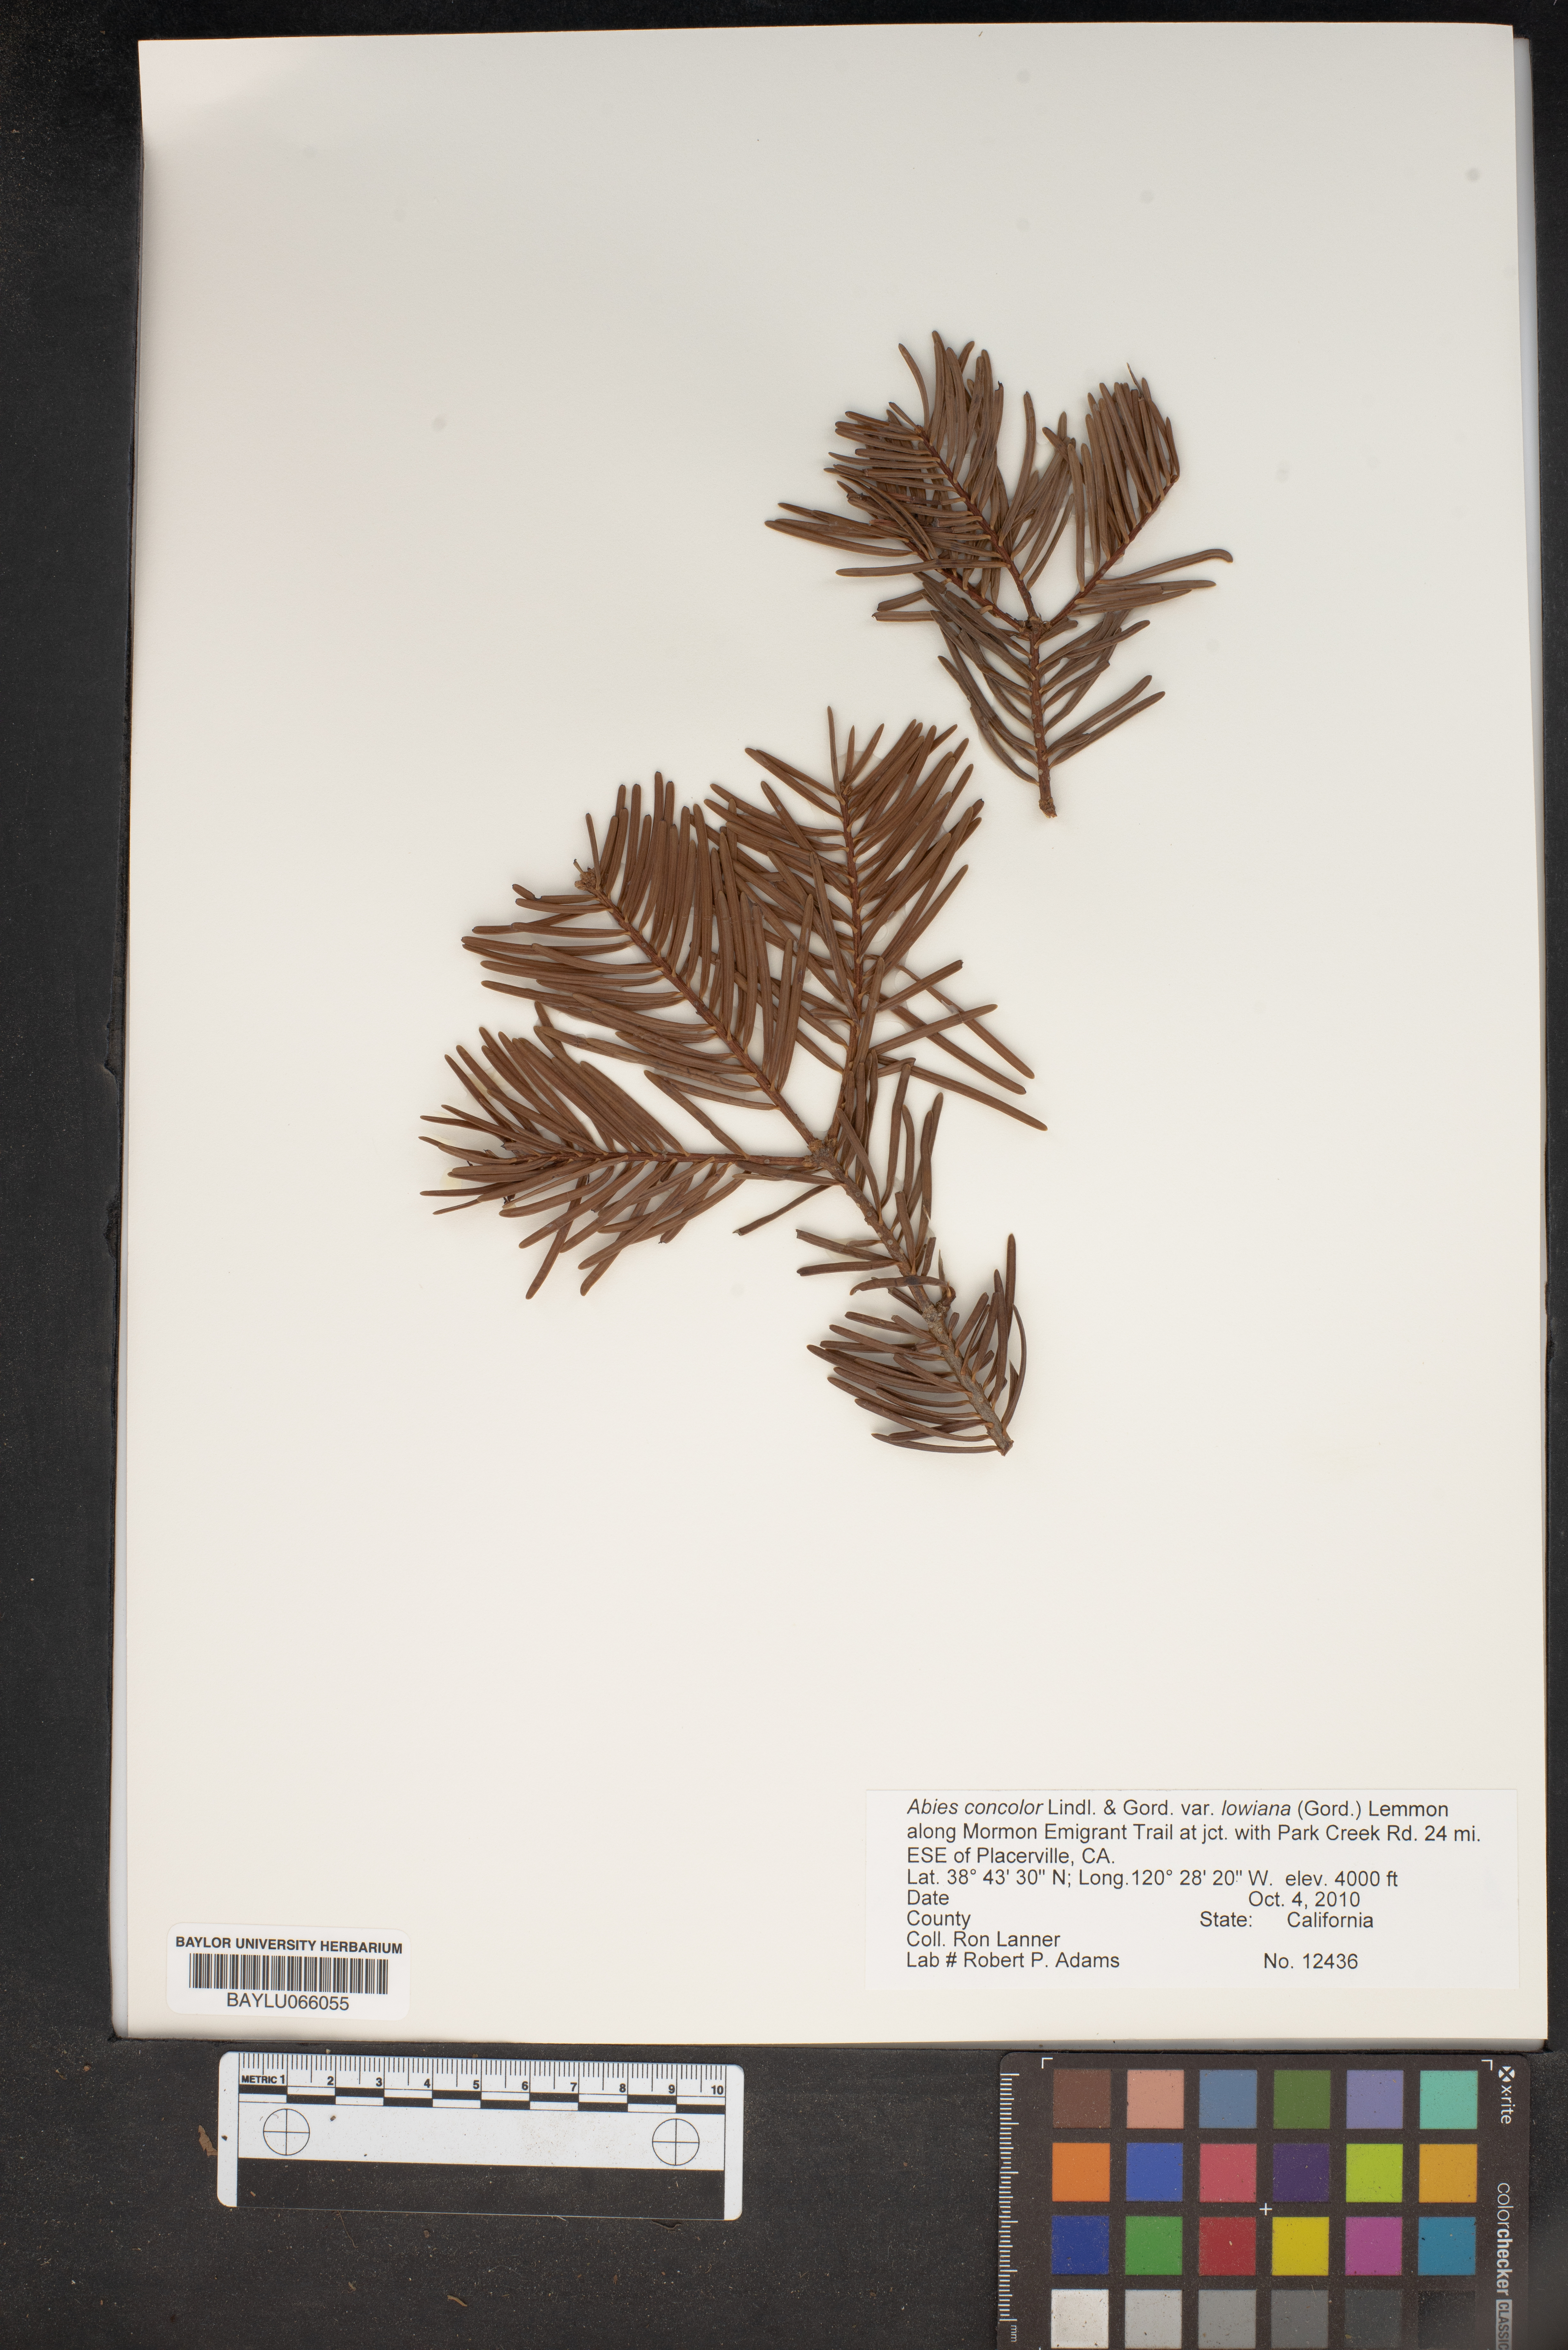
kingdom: Plantae
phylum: Tracheophyta
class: Pinopsida
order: Pinales
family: Pinaceae
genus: Abies
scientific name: Abies concolor
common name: Colorado fir
